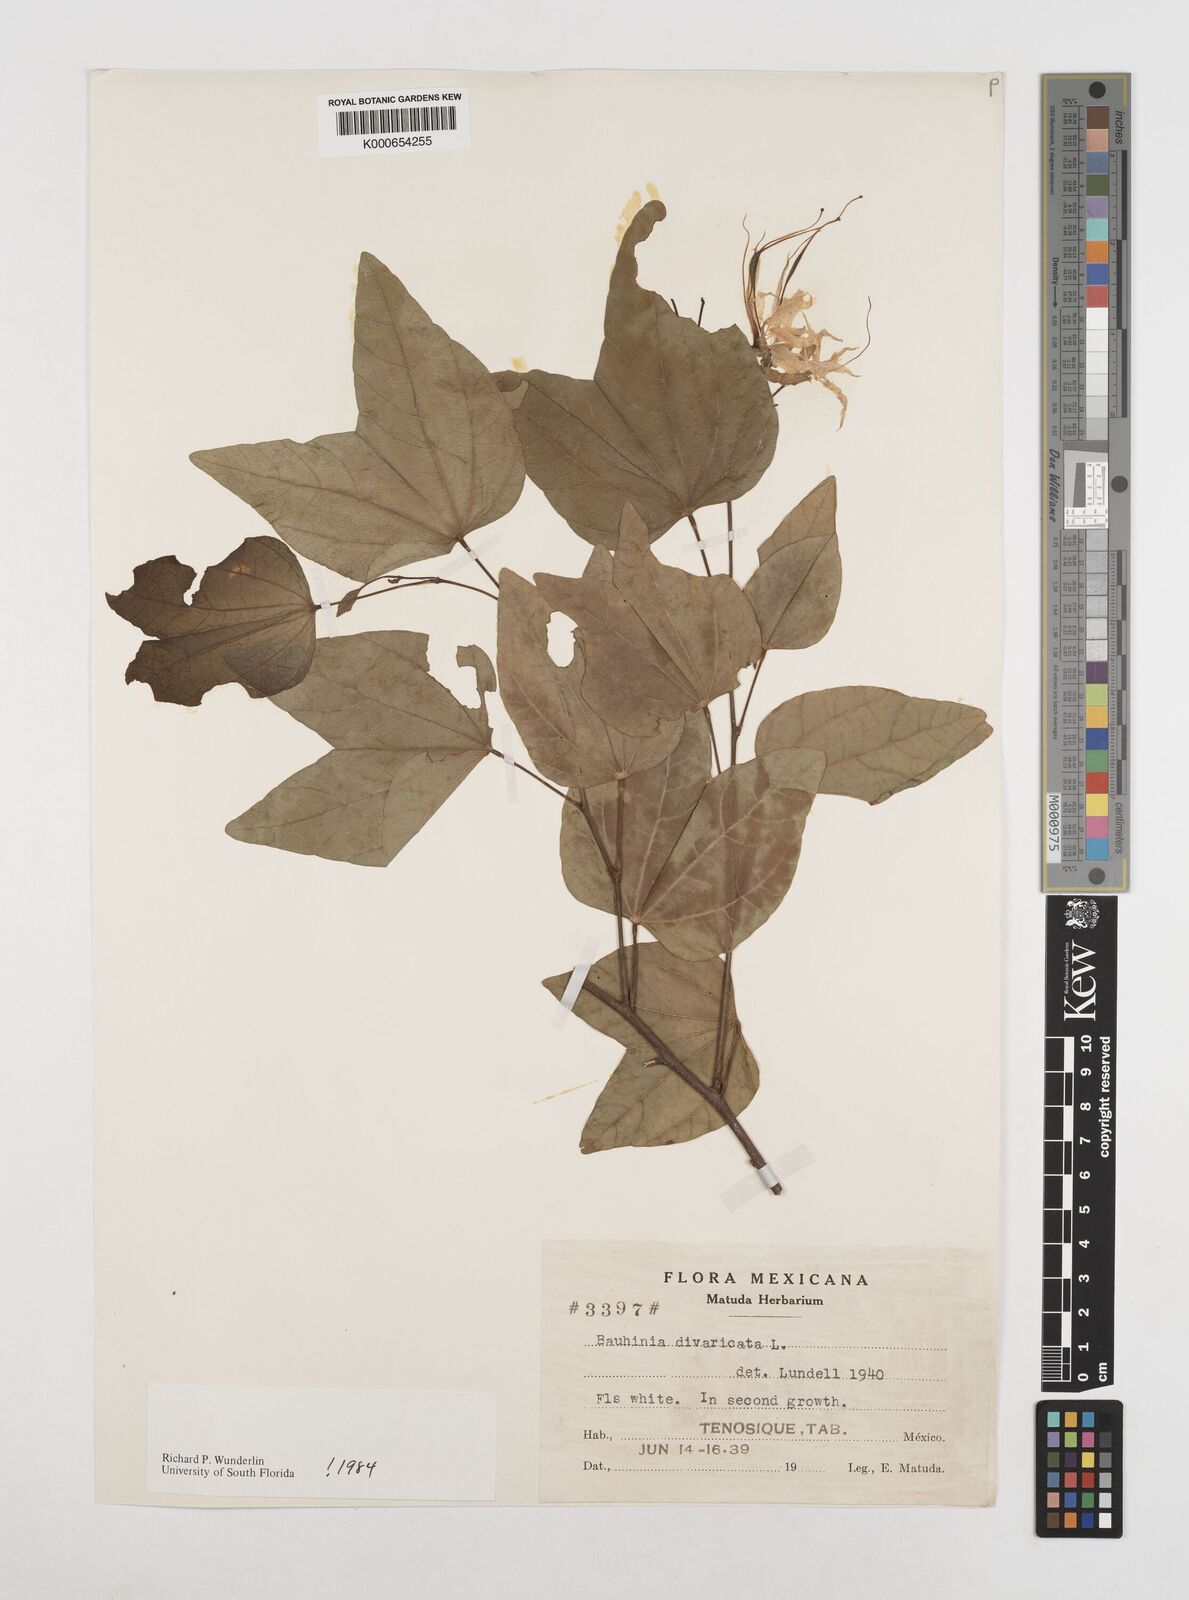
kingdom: Plantae
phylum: Tracheophyta
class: Magnoliopsida
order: Fabales
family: Fabaceae
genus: Bauhinia
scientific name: Bauhinia divaricata
